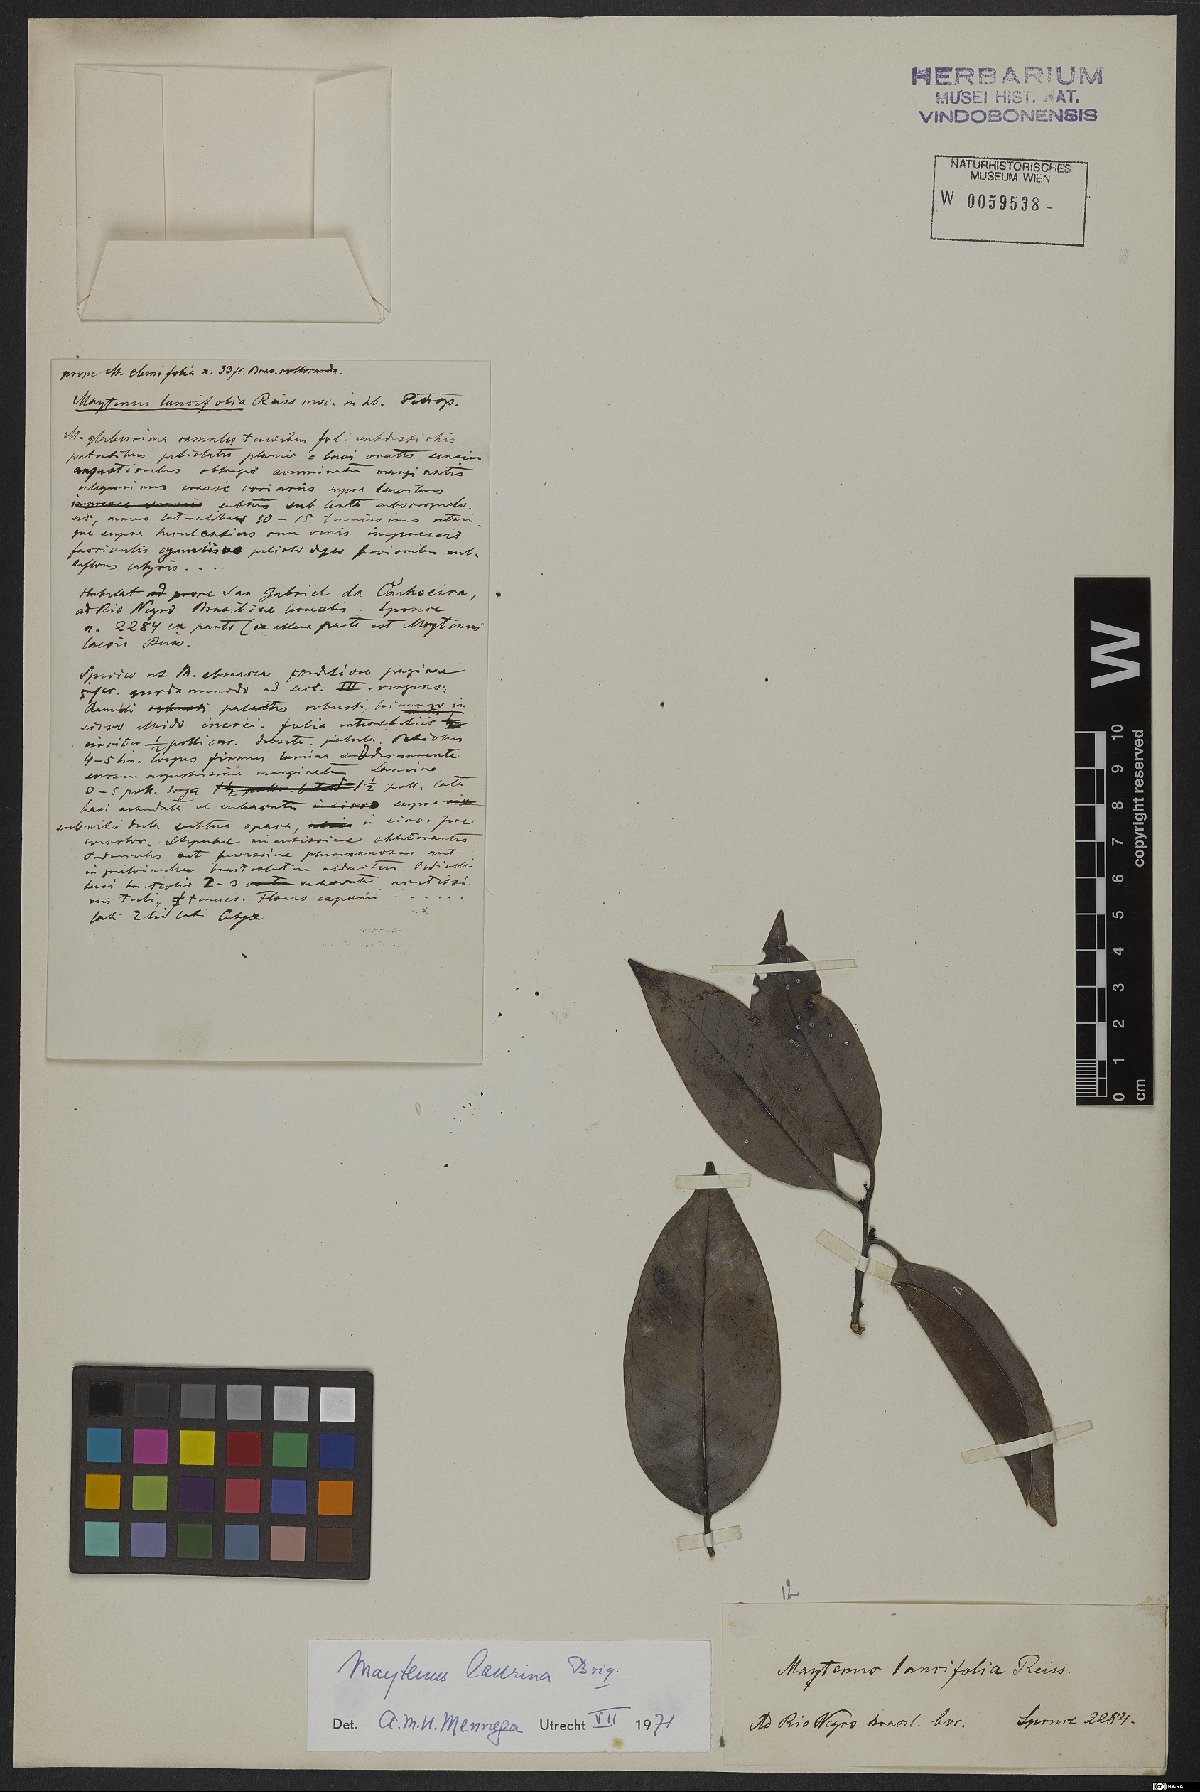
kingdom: Plantae
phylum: Tracheophyta
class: Magnoliopsida
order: Celastrales
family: Celastraceae
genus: Monteverdia
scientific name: Monteverdia laurina
